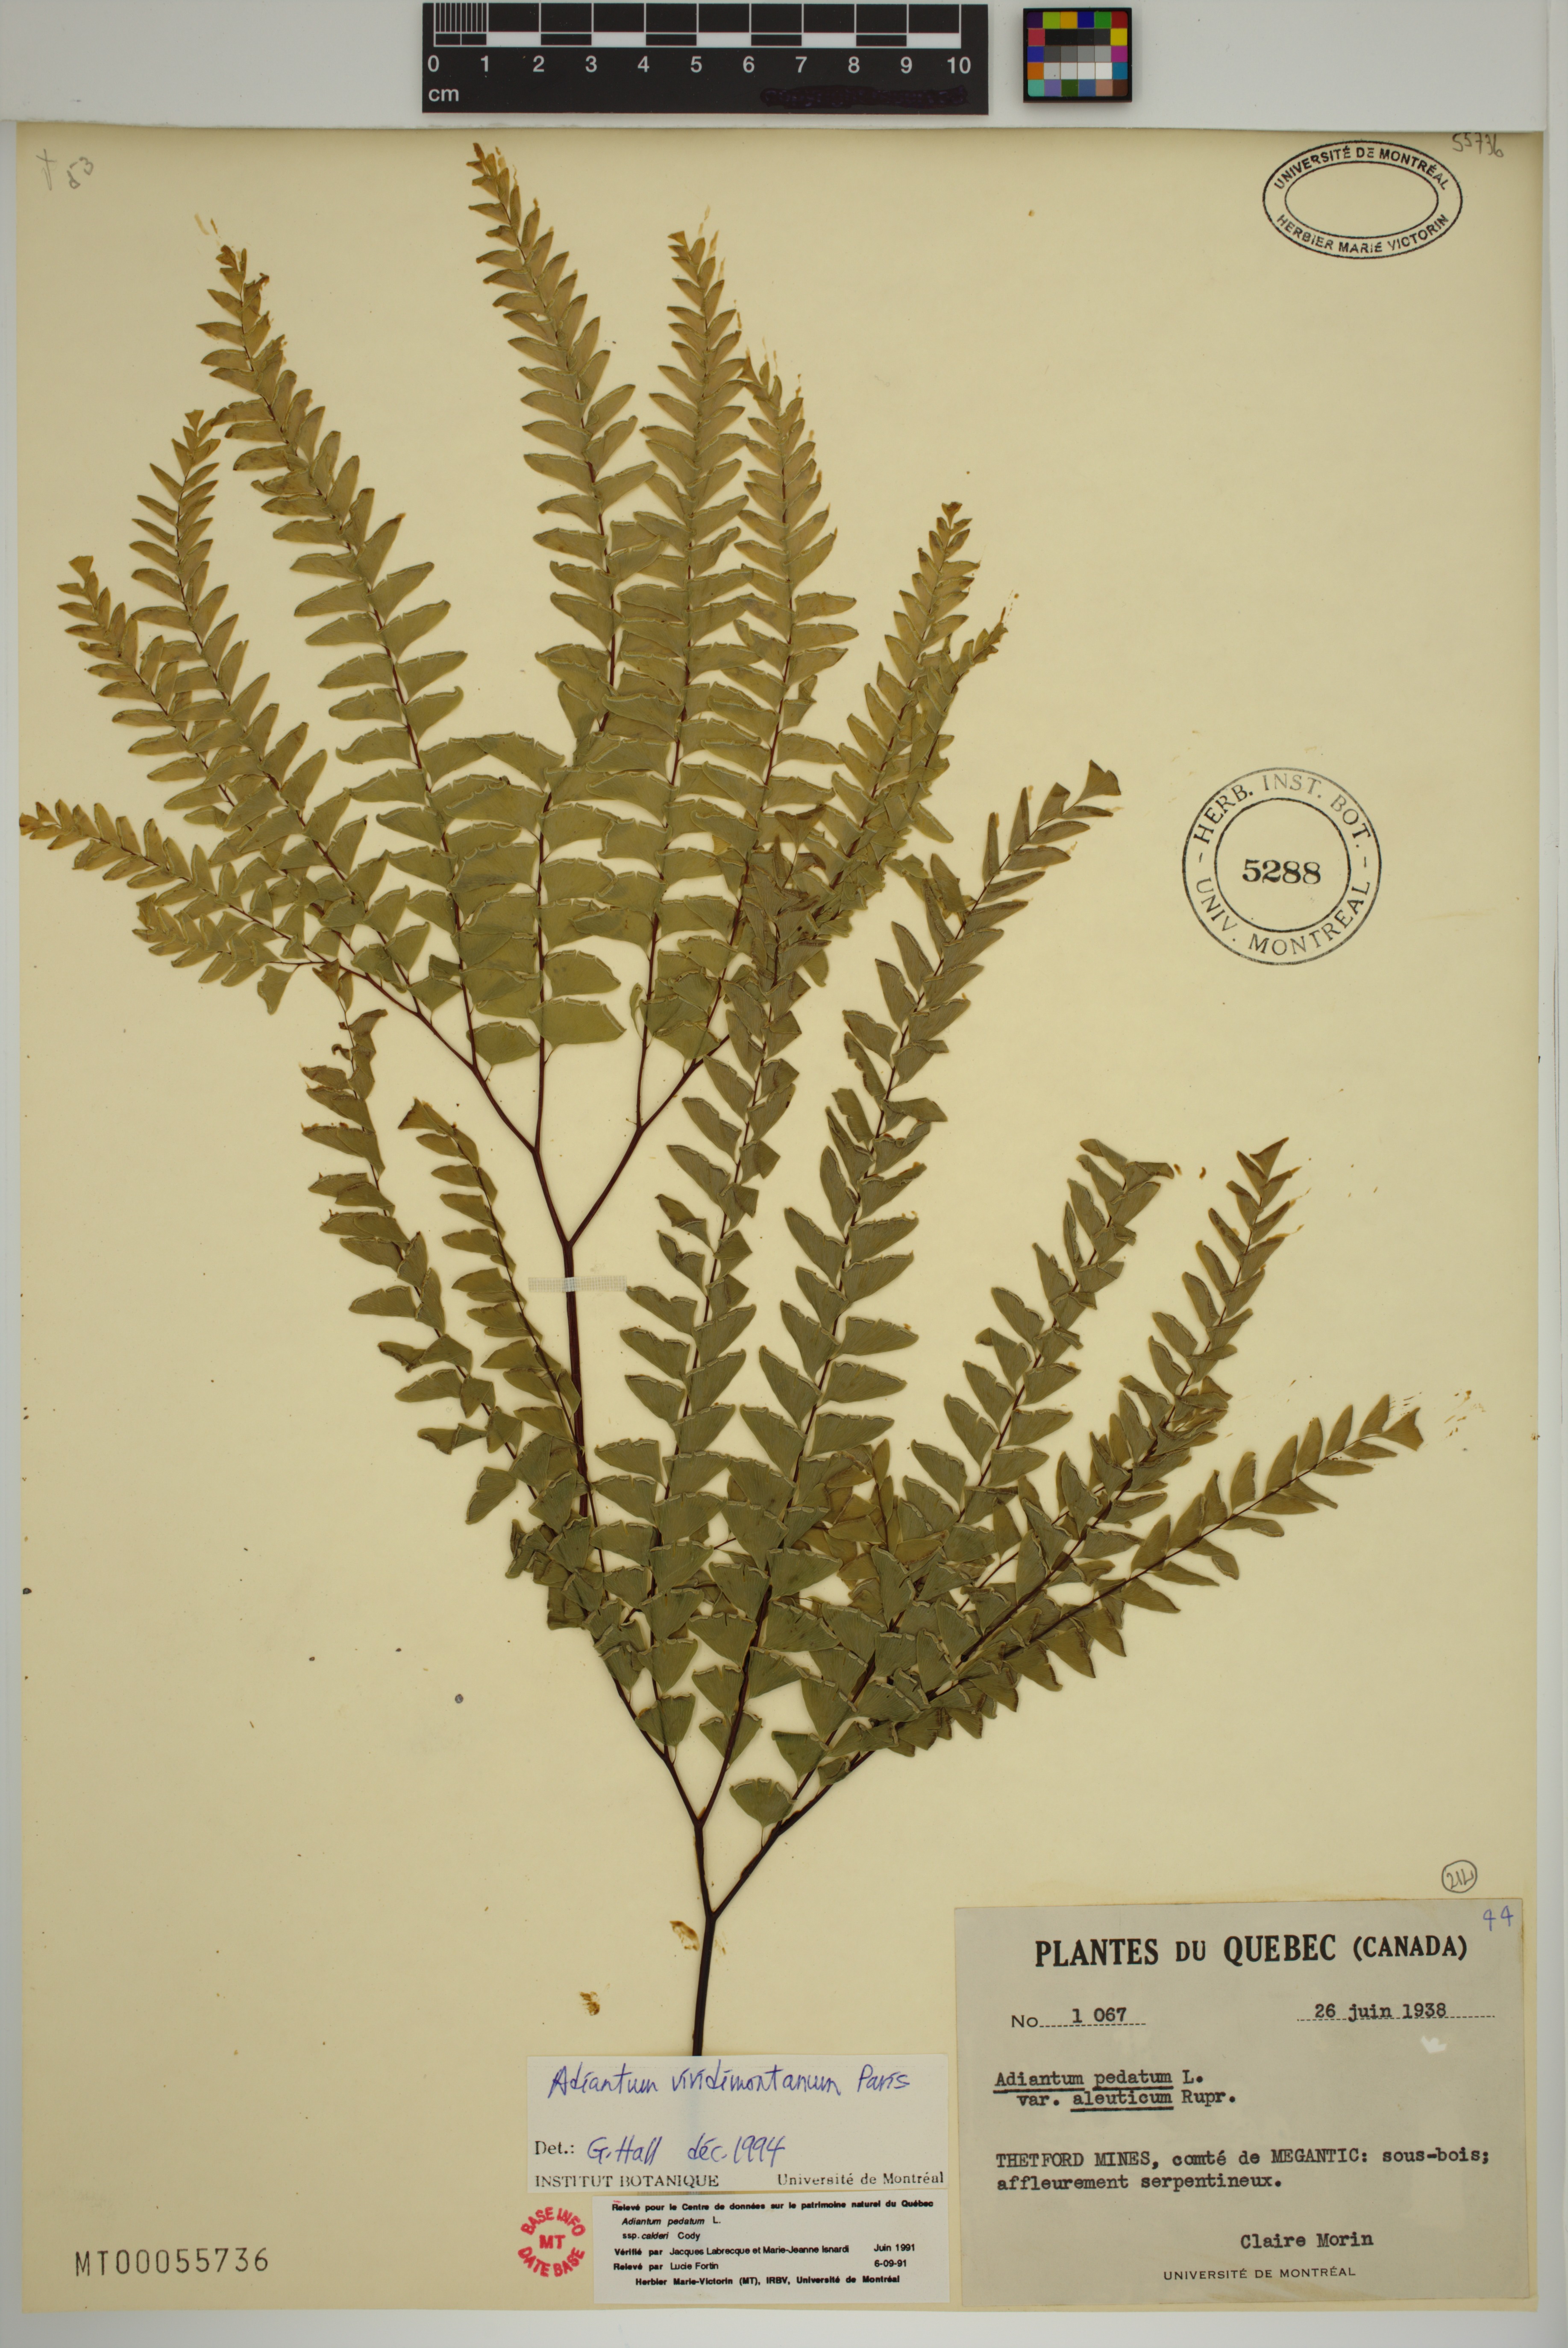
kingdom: Plantae
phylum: Tracheophyta
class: Polypodiopsida
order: Polypodiales
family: Pteridaceae
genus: Adiantum
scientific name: Adiantum viridimontanum
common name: Green mountain maidenhair
